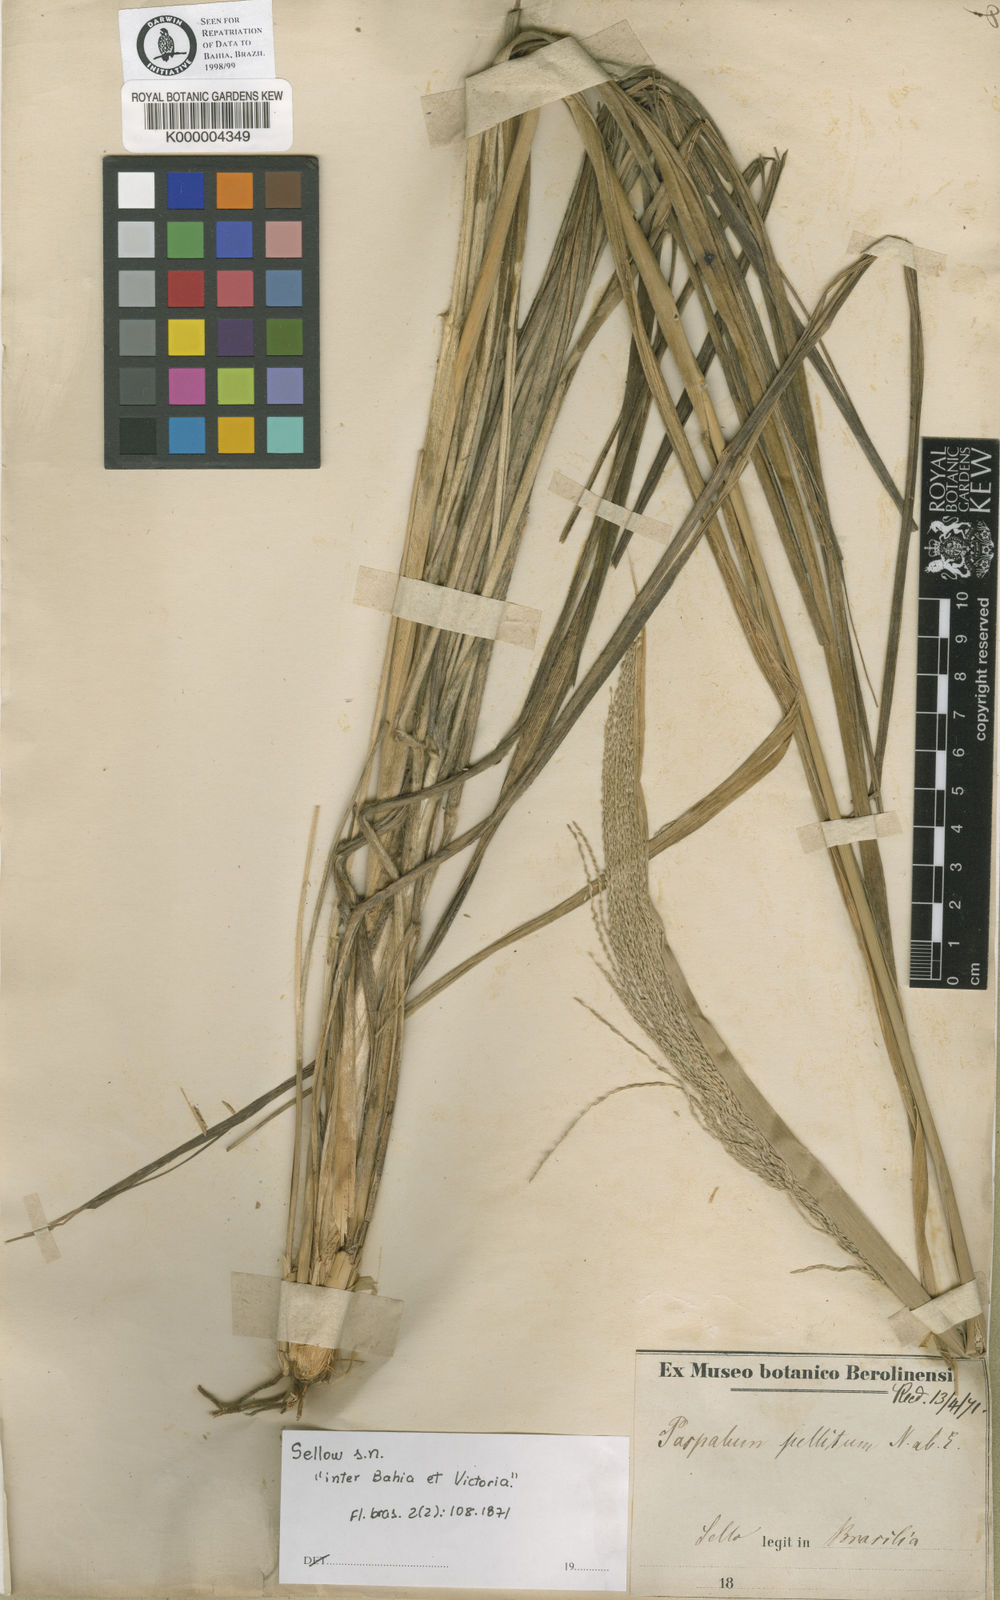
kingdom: Plantae
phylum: Tracheophyta
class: Liliopsida
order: Poales
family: Poaceae
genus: Axonopus
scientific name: Axonopus siccus
